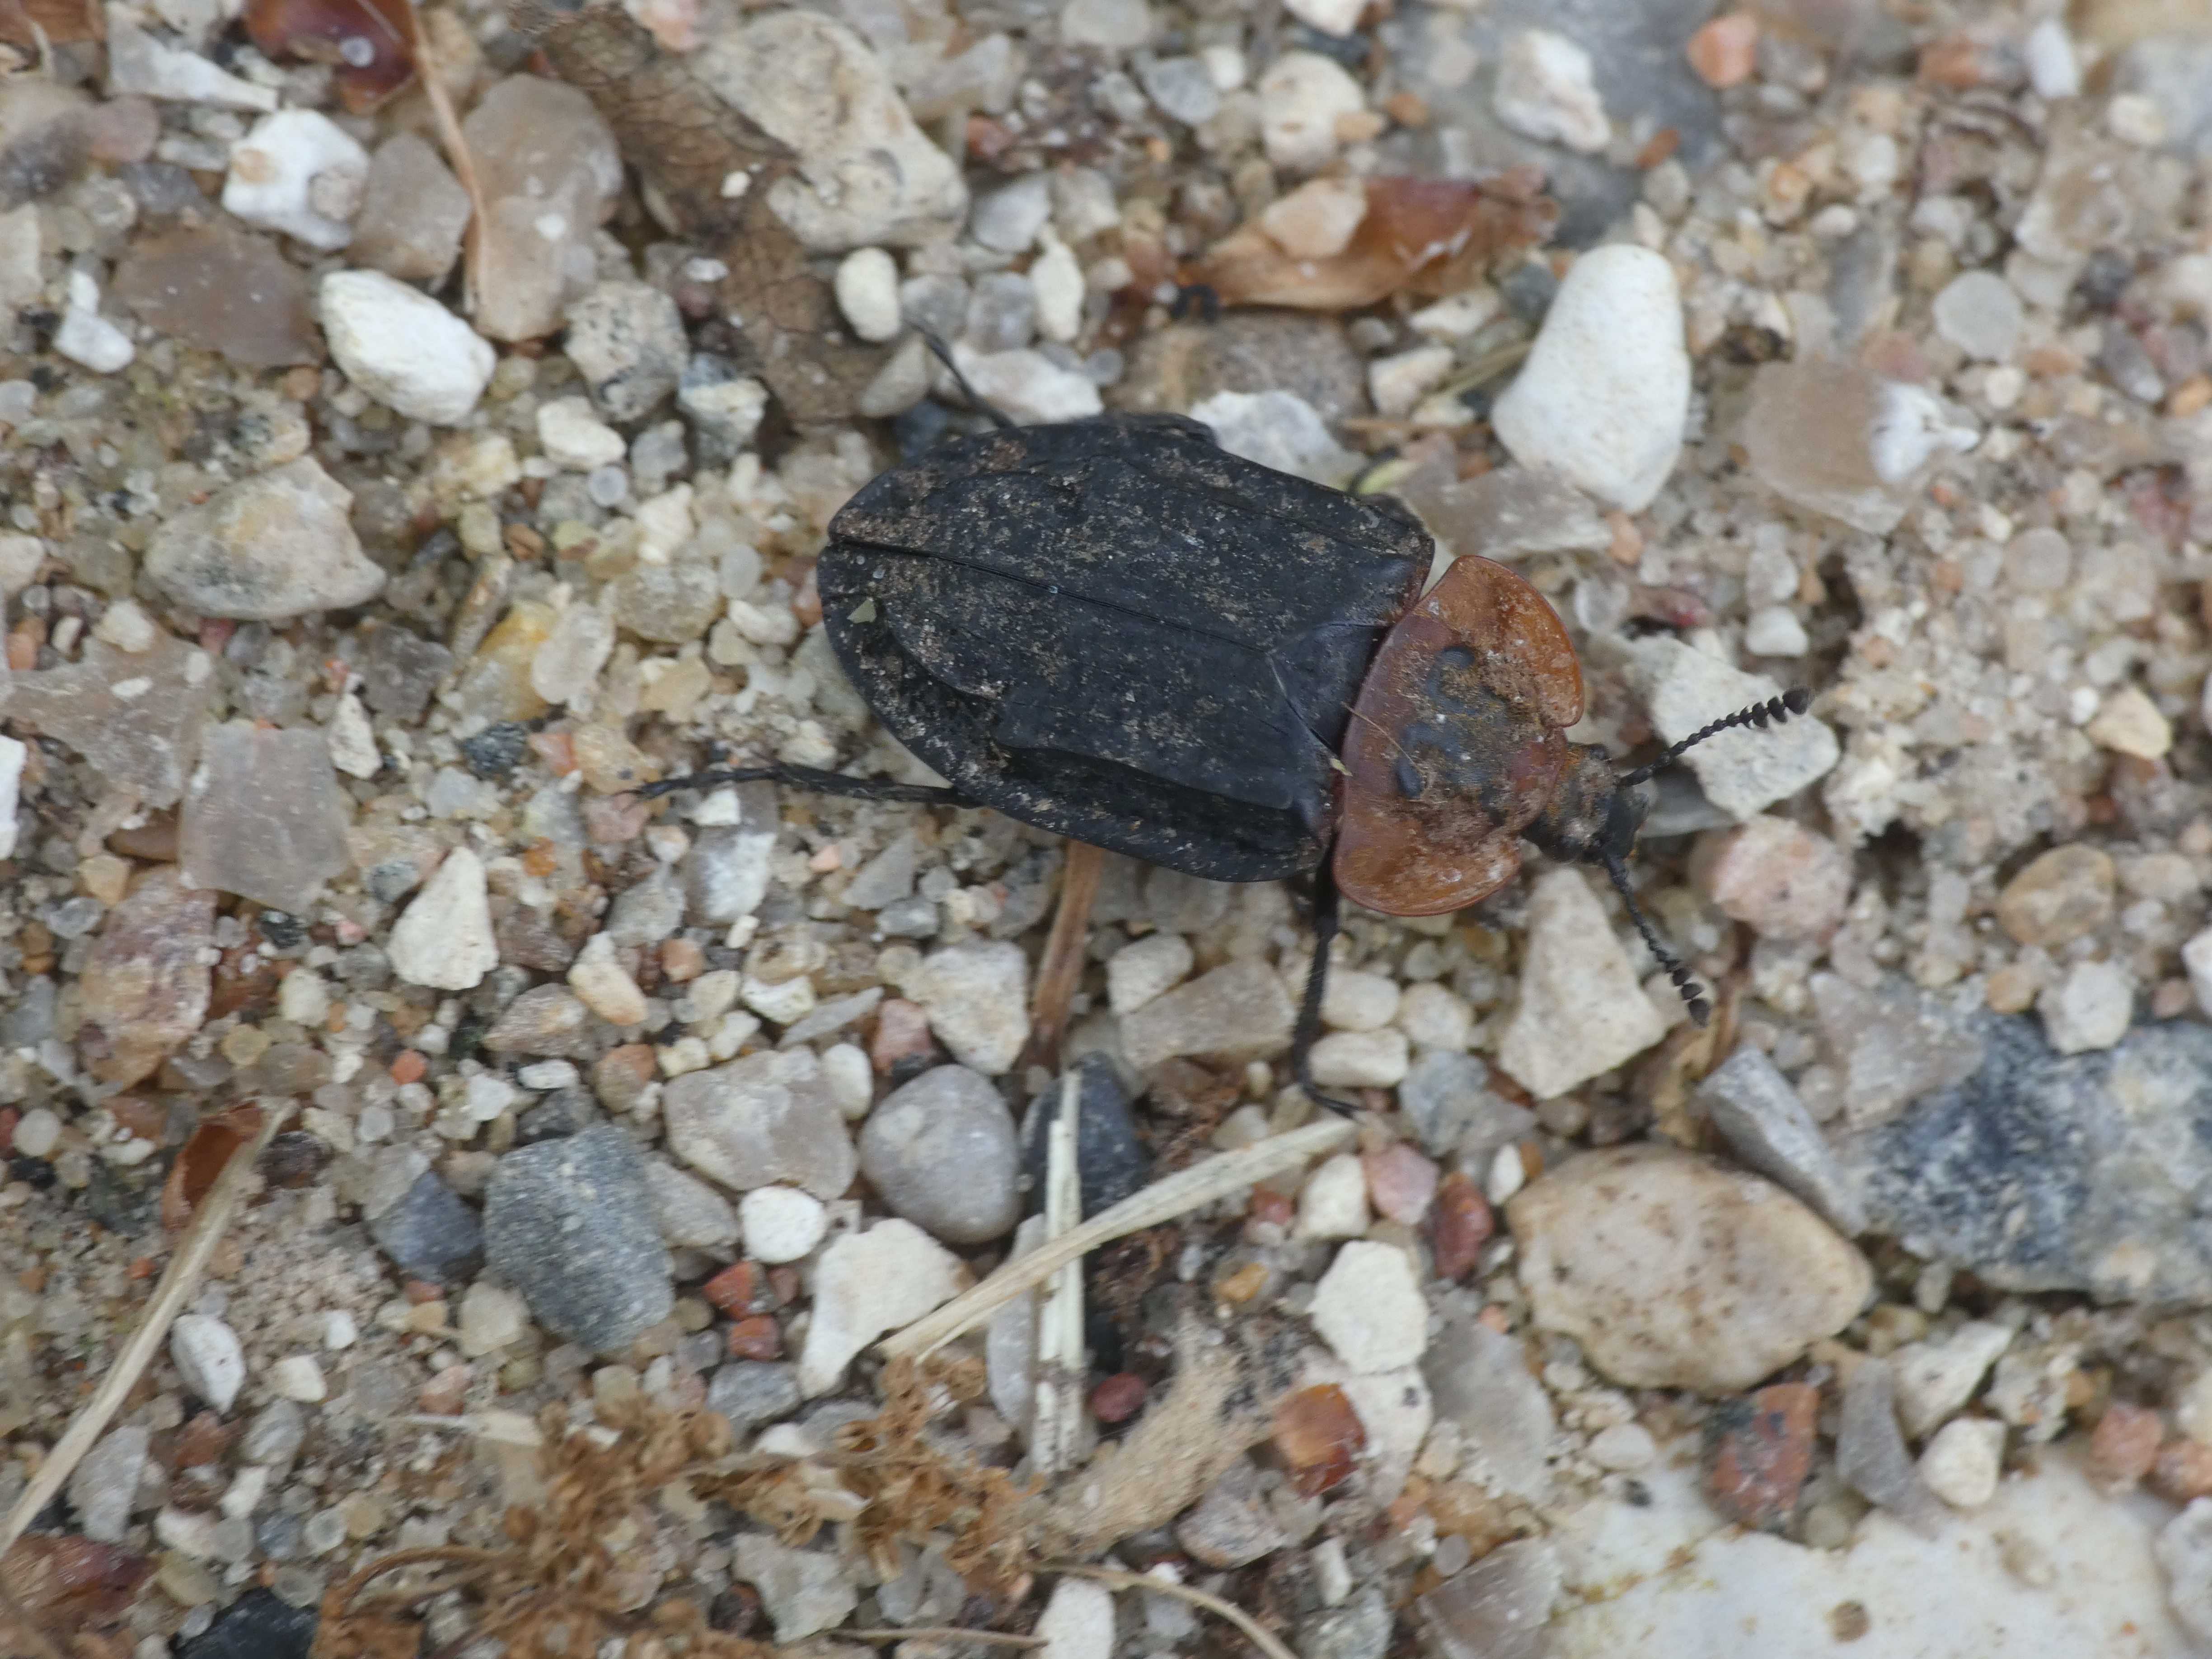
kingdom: Animalia
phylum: Arthropoda
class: Insecta
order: Coleoptera
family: Staphylinidae
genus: Oiceoptoma
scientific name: Oiceoptoma thoracicum
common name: Rødbrystet ådselbille
